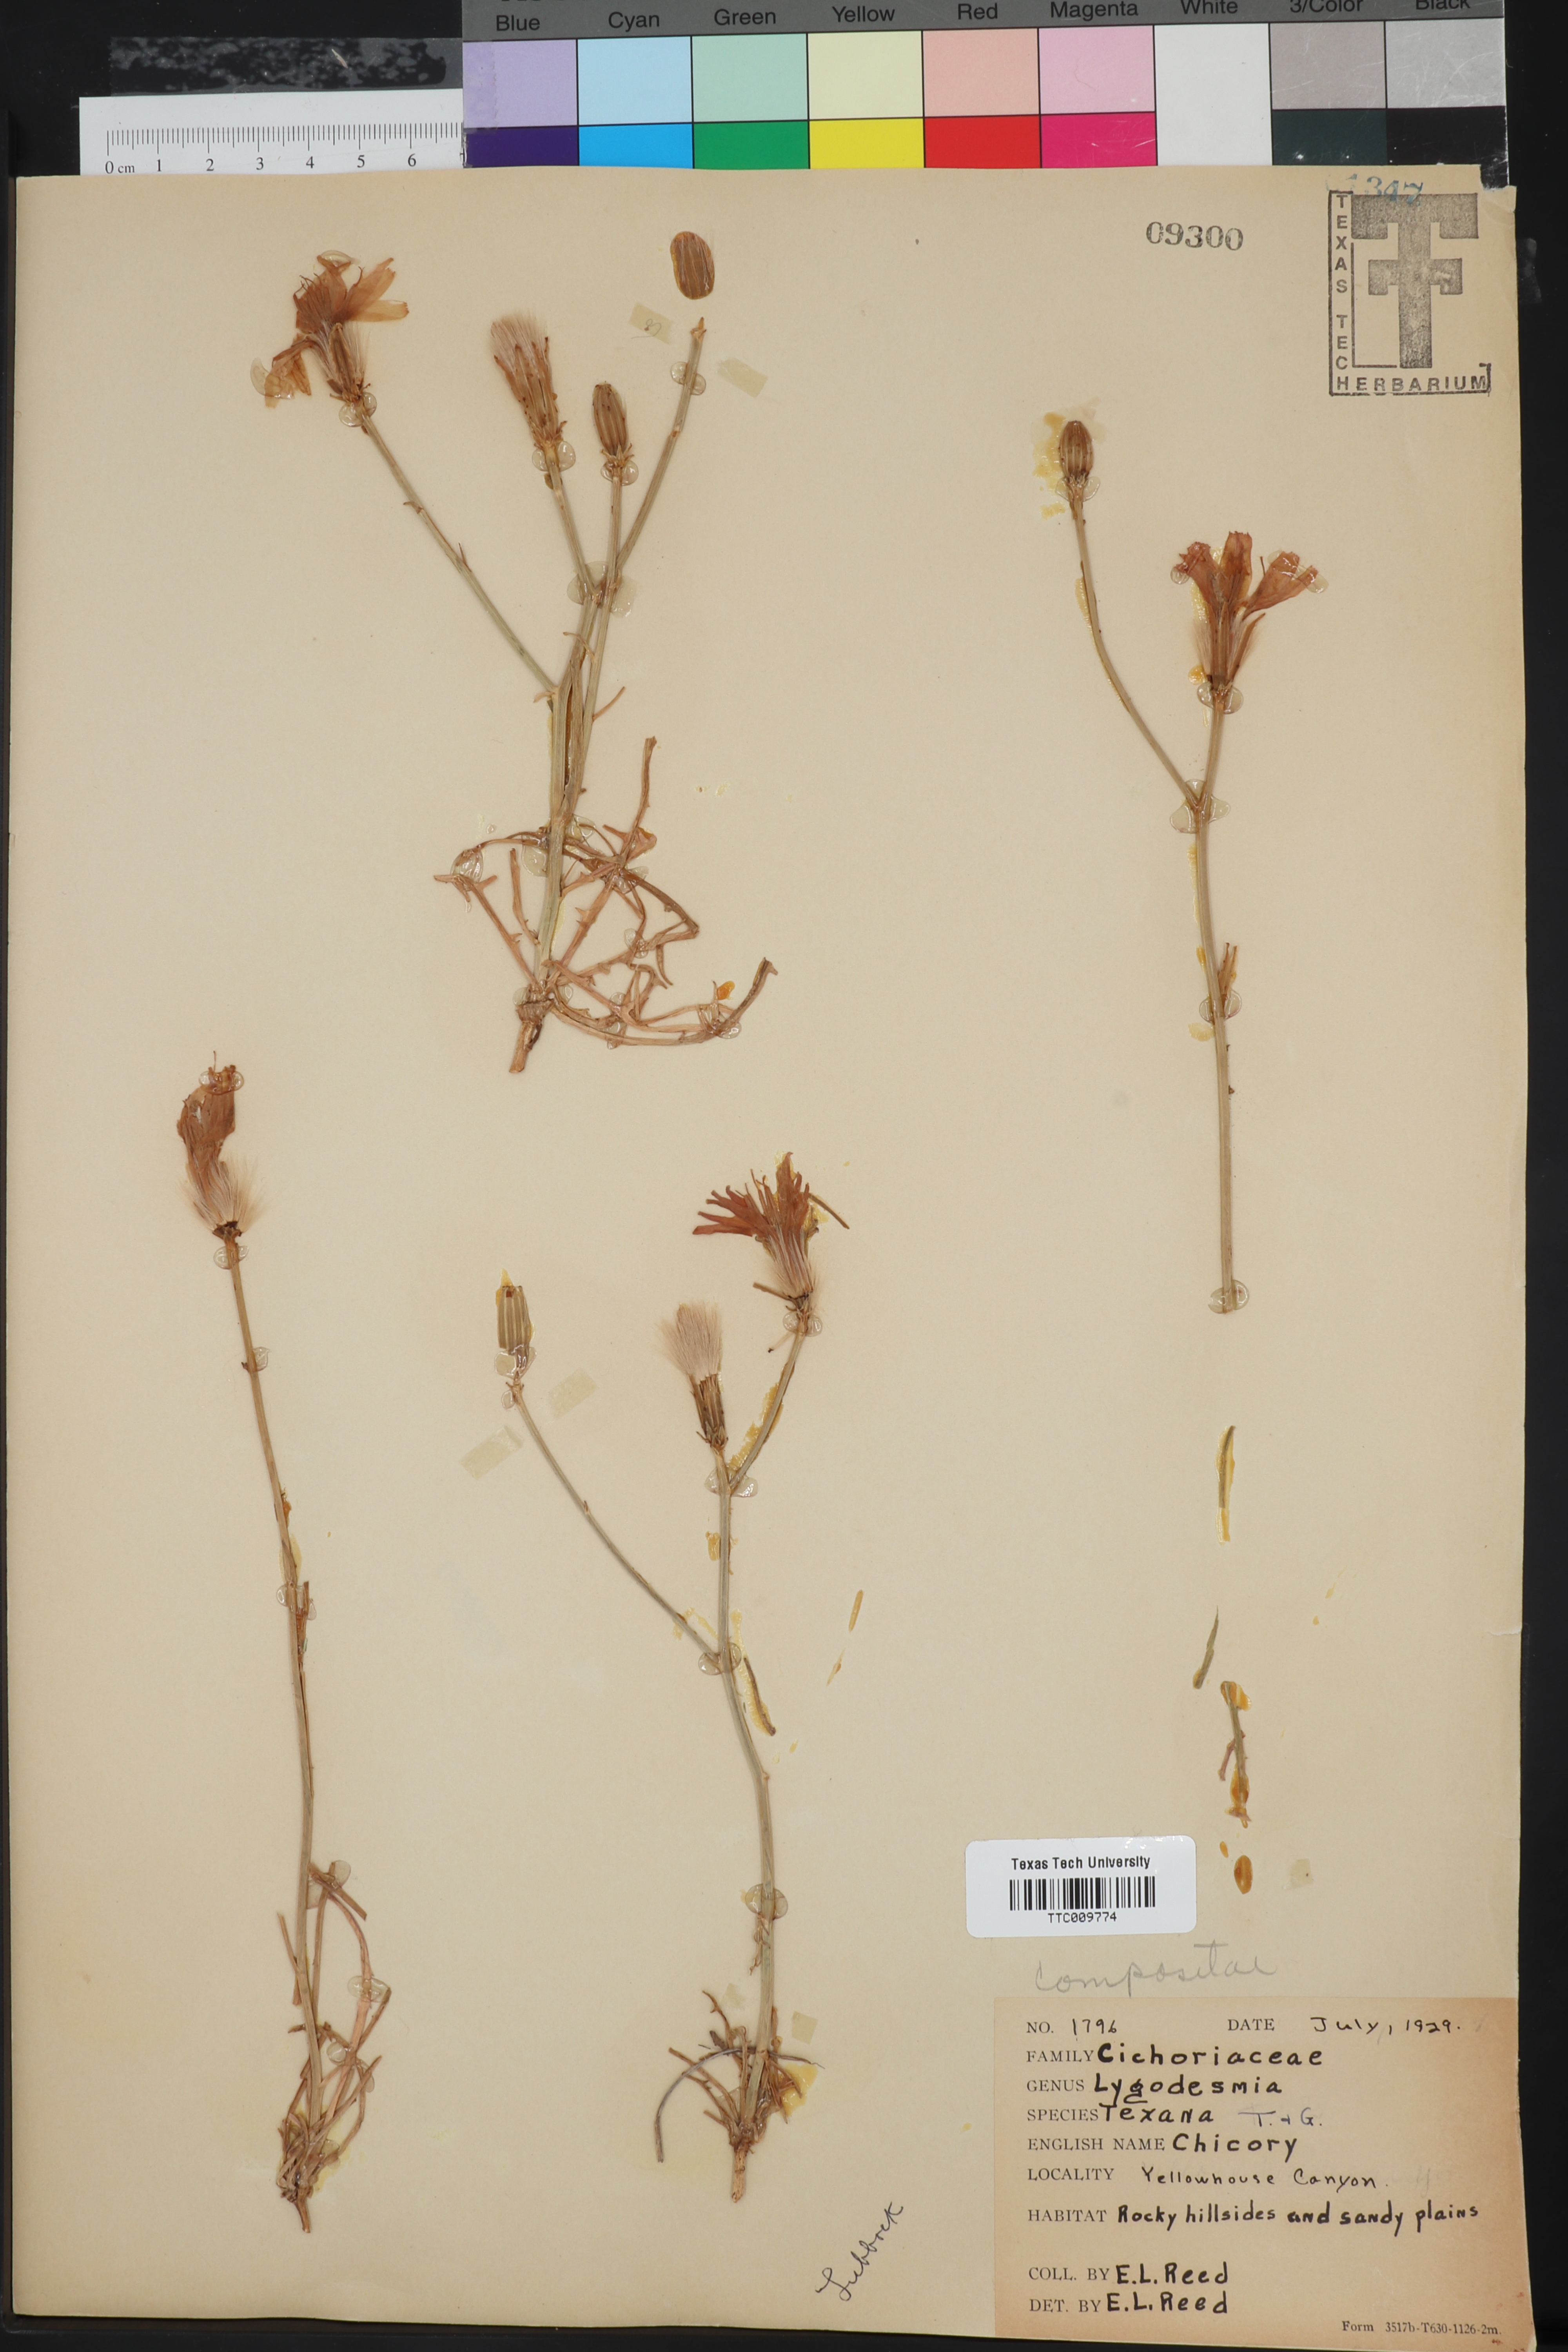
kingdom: Plantae
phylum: Tracheophyta
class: Magnoliopsida
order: Asterales
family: Asteraceae
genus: Lygodesmia
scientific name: Lygodesmia texana
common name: Texas skeleton-plant
